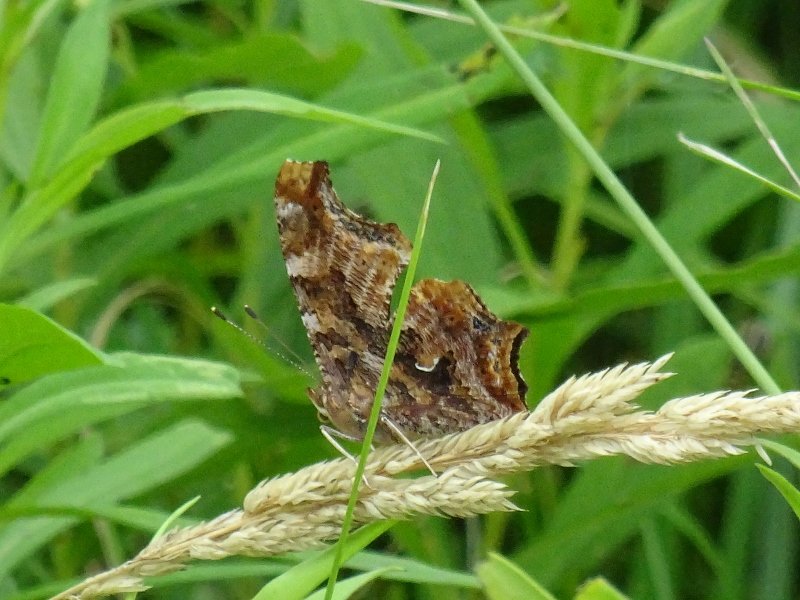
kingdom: Animalia
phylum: Arthropoda
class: Insecta
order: Lepidoptera
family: Nymphalidae
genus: Polygonia
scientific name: Polygonia comma
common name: Eastern Comma
